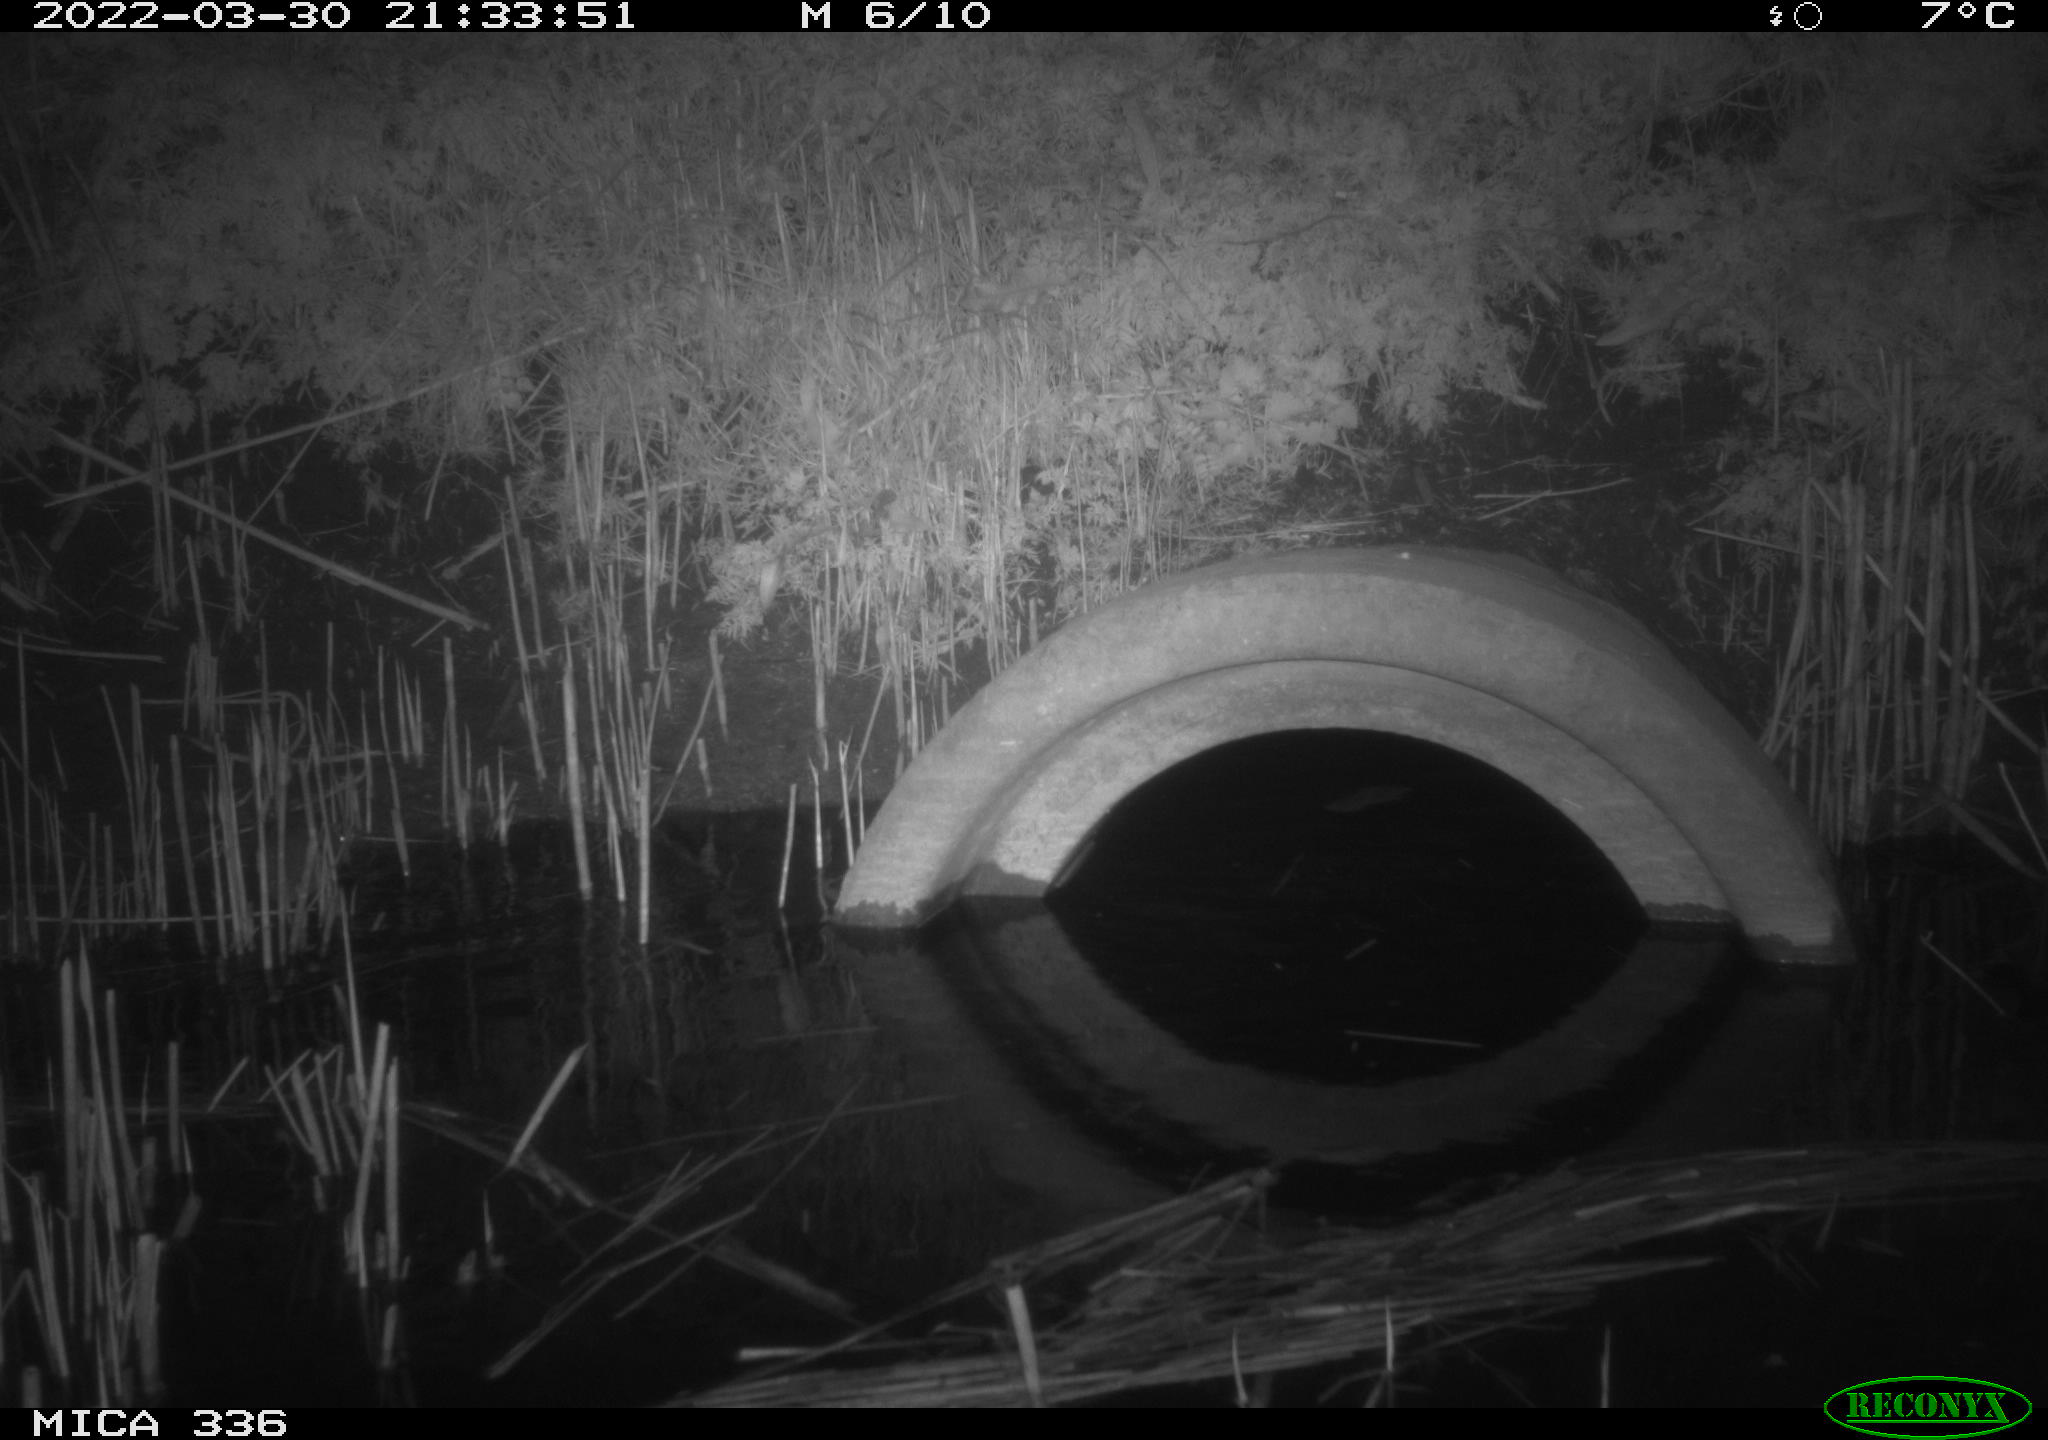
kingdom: Animalia
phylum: Chordata
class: Mammalia
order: Rodentia
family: Muridae
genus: Rattus
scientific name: Rattus norvegicus
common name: Brown rat
